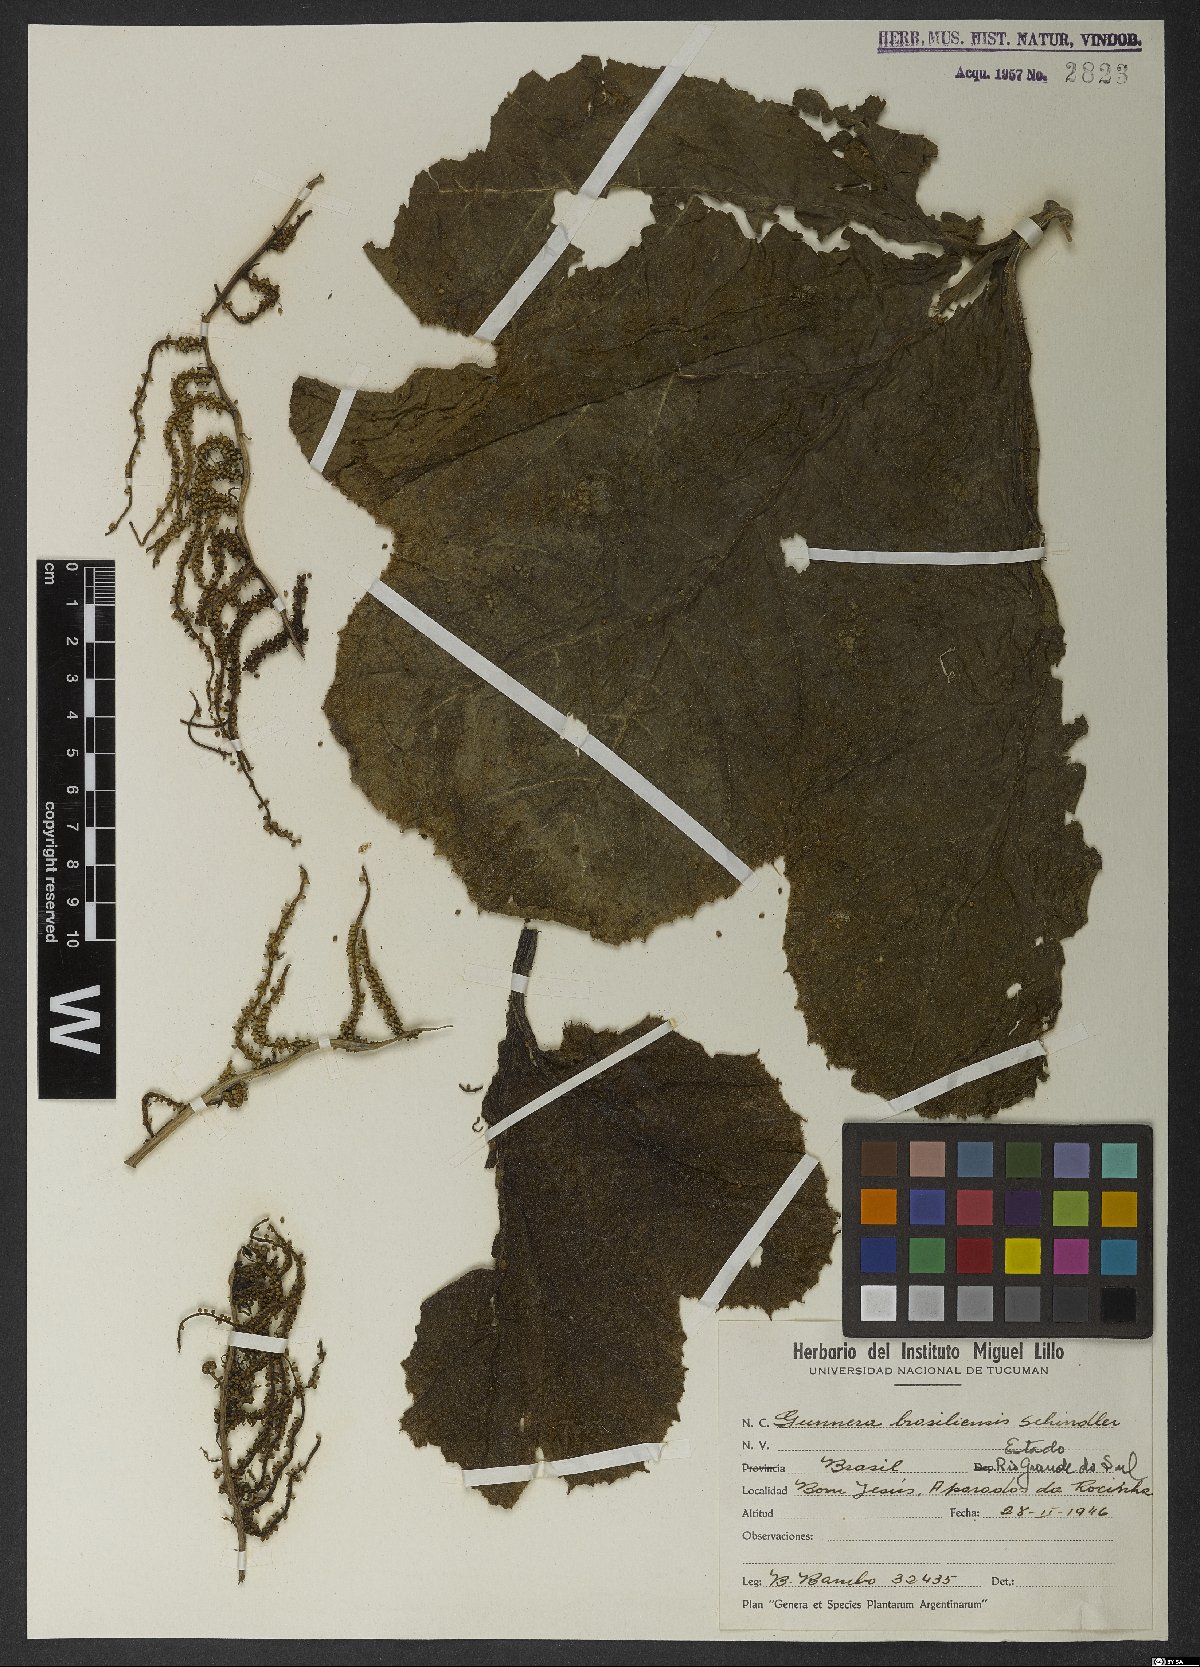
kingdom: Plantae
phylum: Tracheophyta
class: Magnoliopsida
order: Gunnerales
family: Gunneraceae
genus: Gunnera
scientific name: Gunnera manicata
